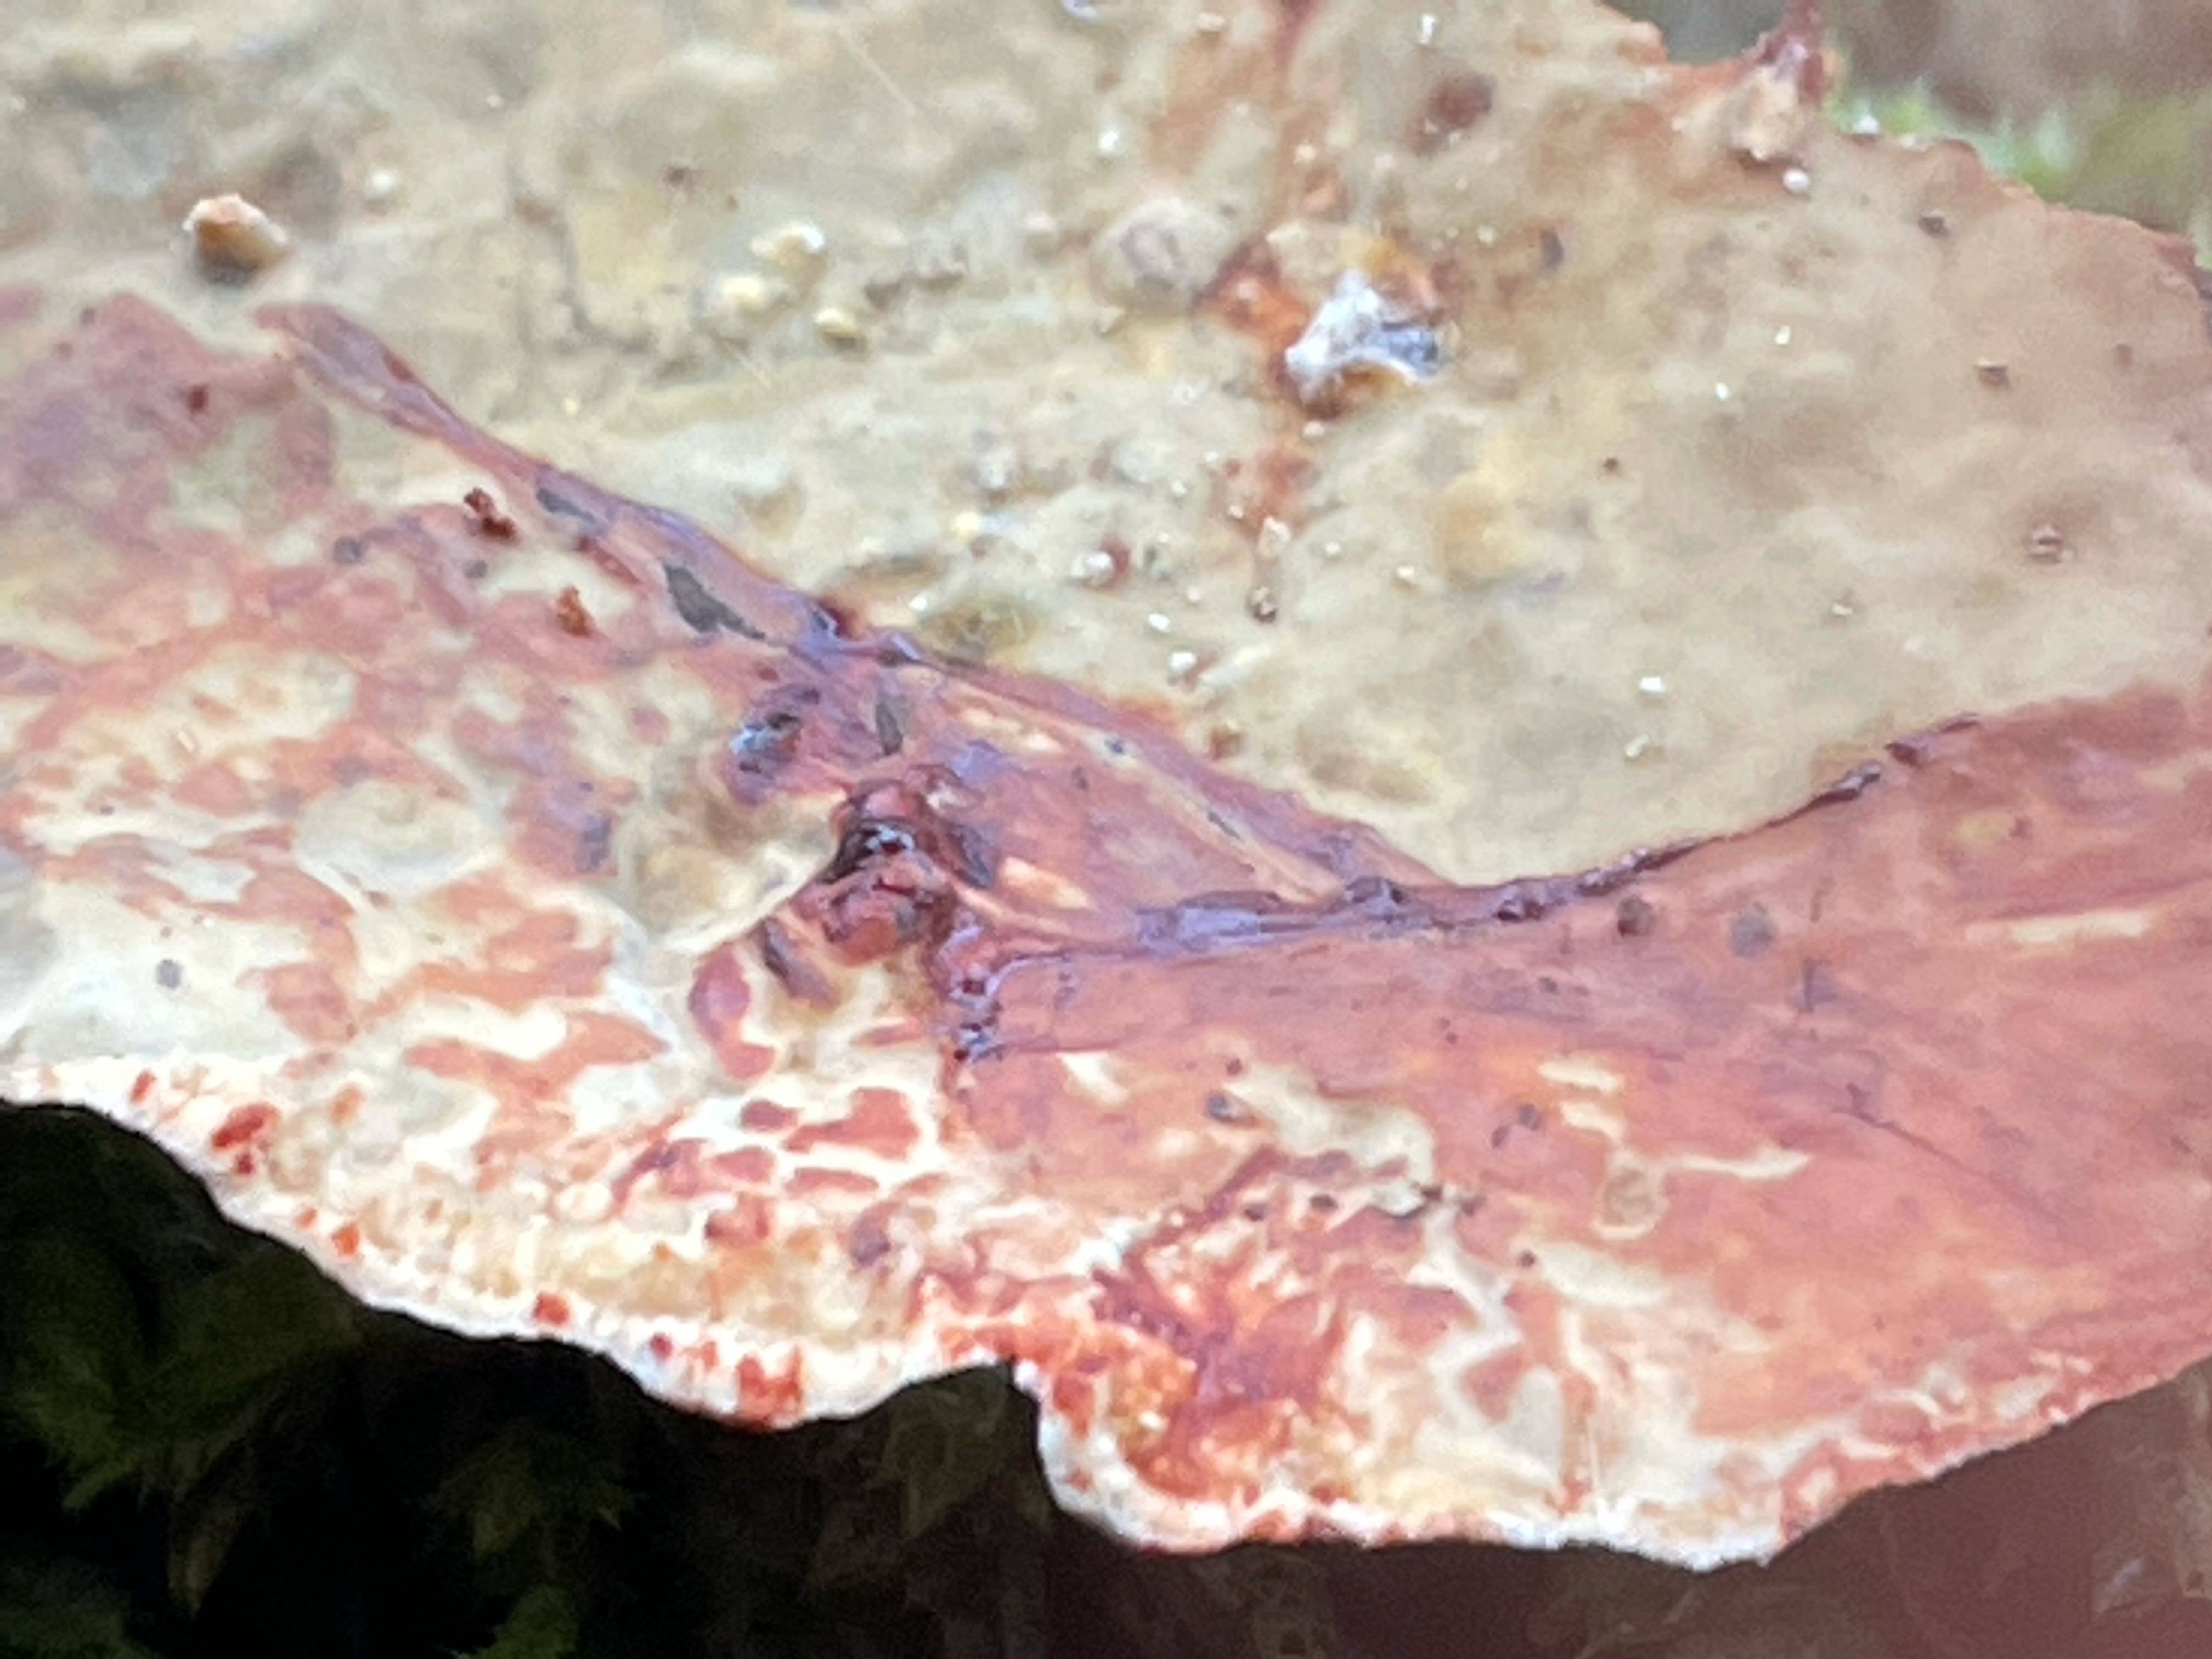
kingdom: Fungi
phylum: Basidiomycota
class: Agaricomycetes
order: Russulales
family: Stereaceae
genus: Stereum
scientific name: Stereum rugosum
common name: rynket lædersvamp
